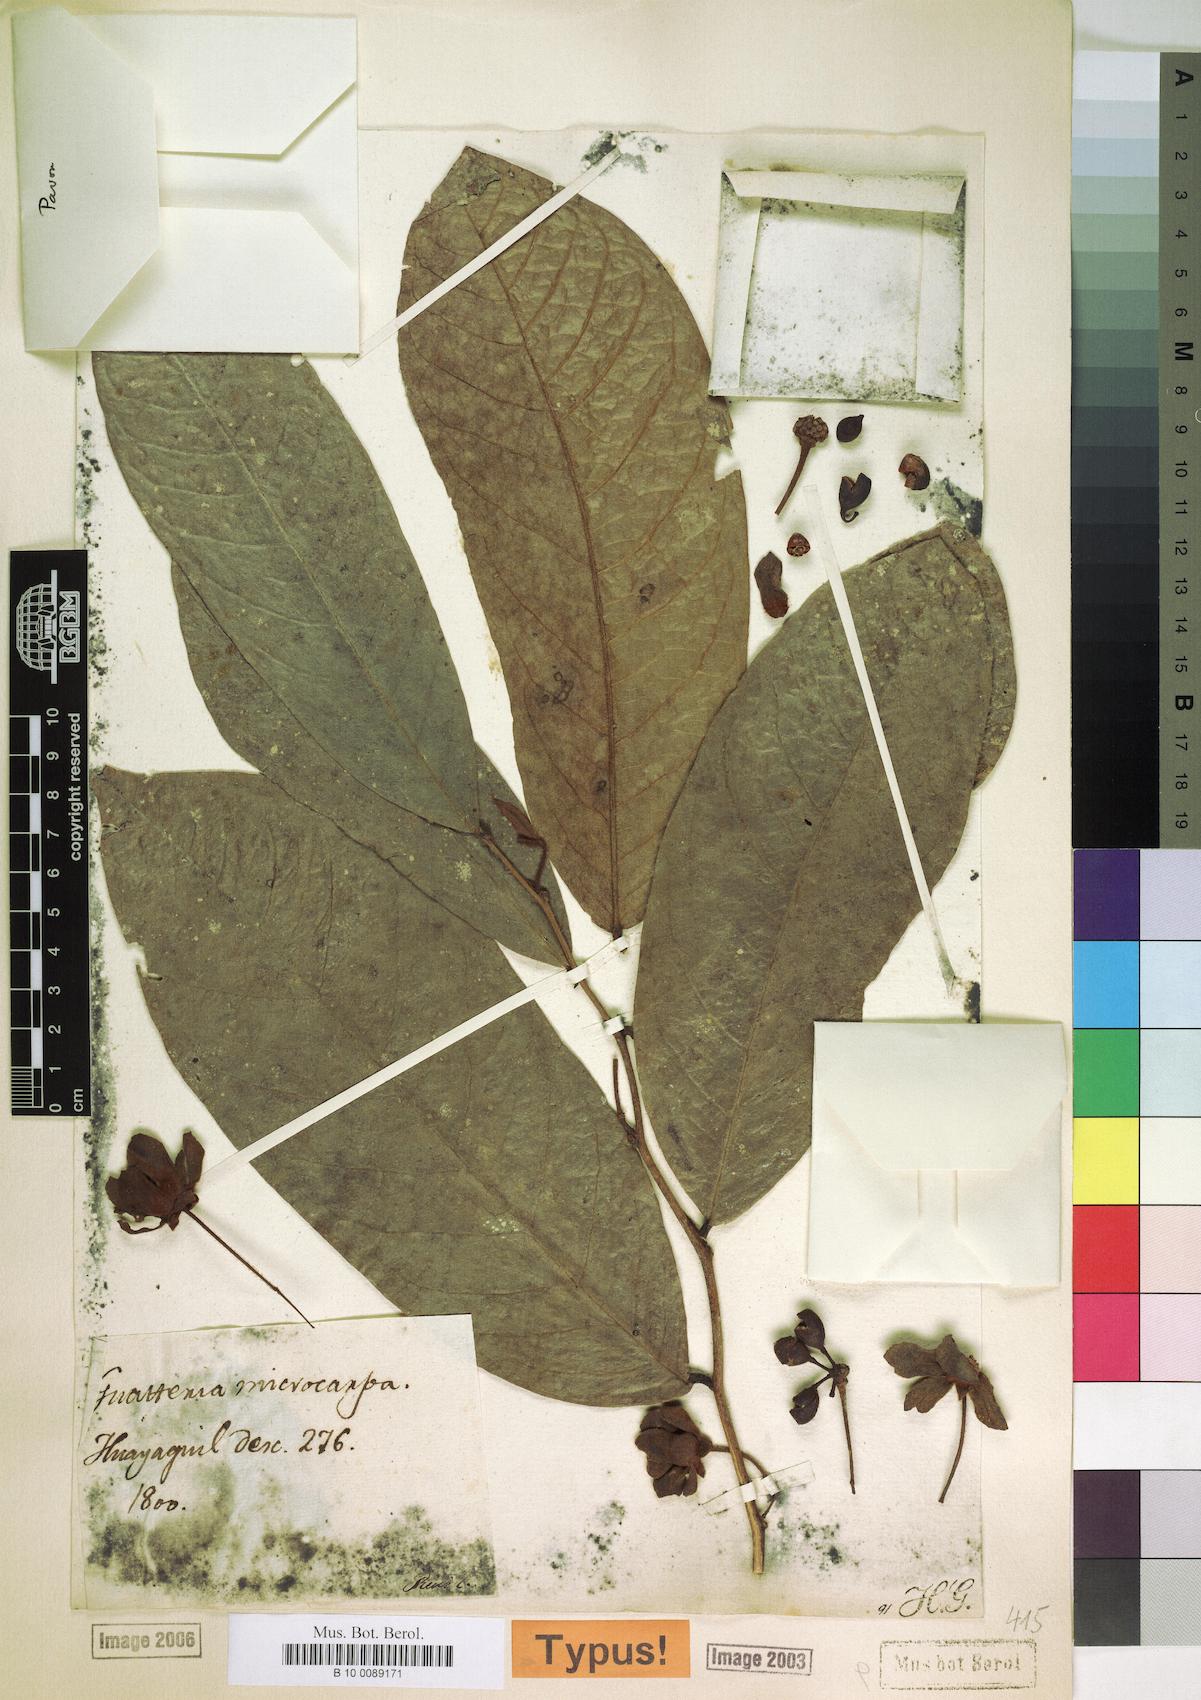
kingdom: Plantae
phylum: Tracheophyta
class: Magnoliopsida
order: Magnoliales
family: Annonaceae
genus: Guatteria
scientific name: Guatteria microcarpa
